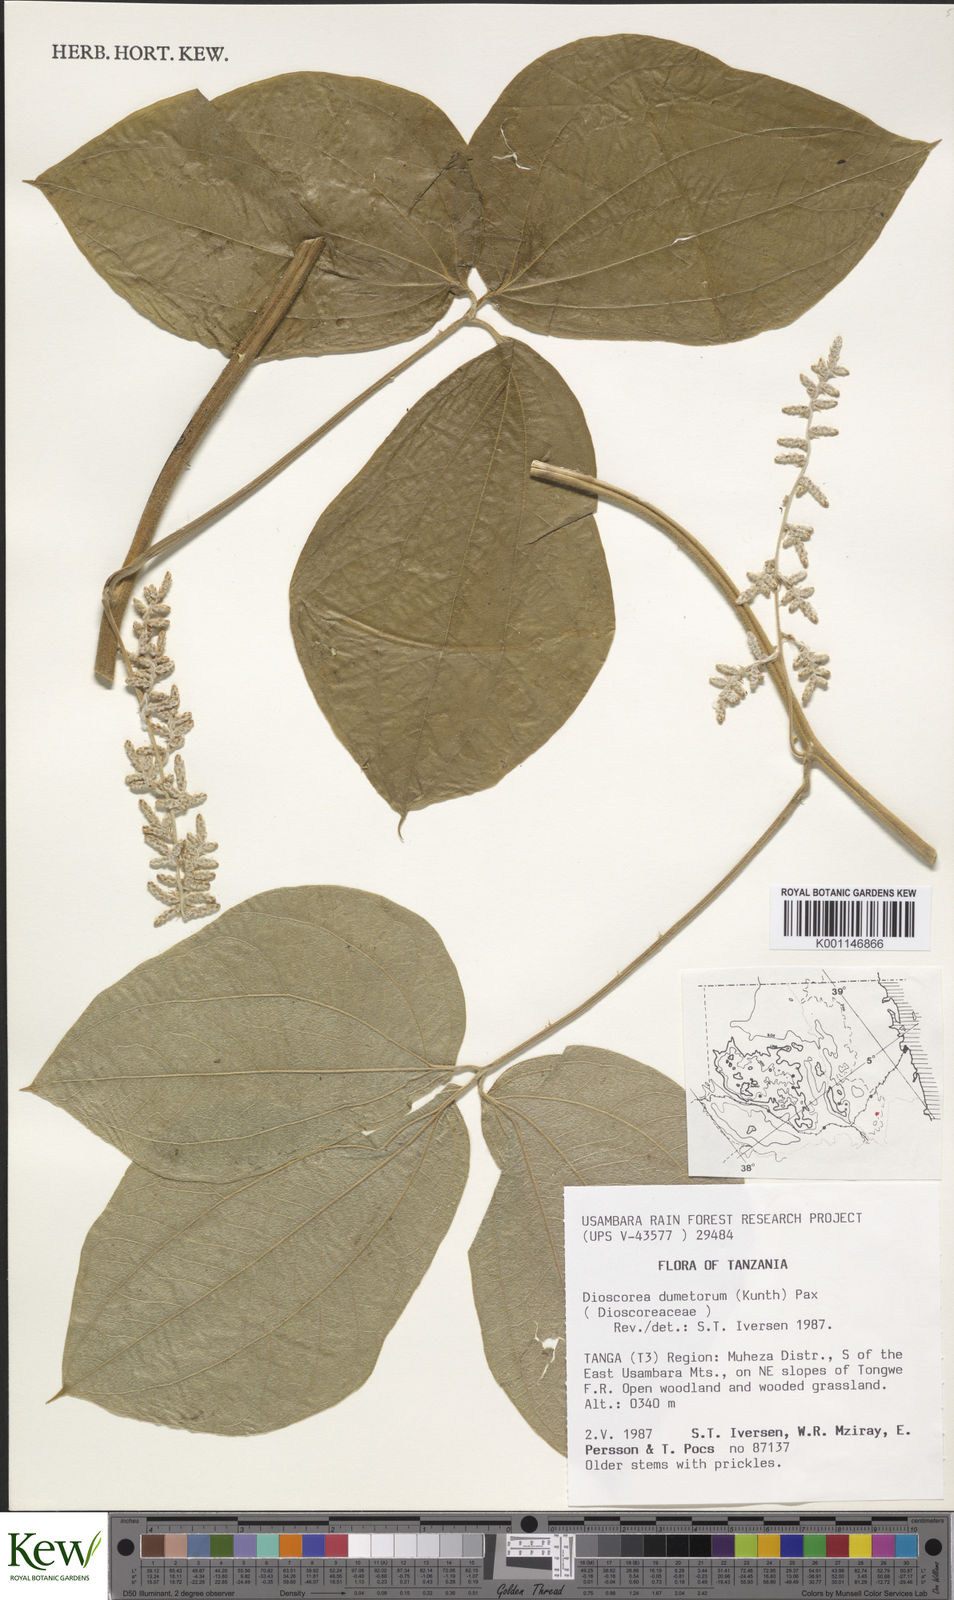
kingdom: Plantae
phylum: Tracheophyta
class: Liliopsida
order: Dioscoreales
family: Dioscoreaceae
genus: Dioscorea
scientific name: Dioscorea dumetorum
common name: African bitter yam
